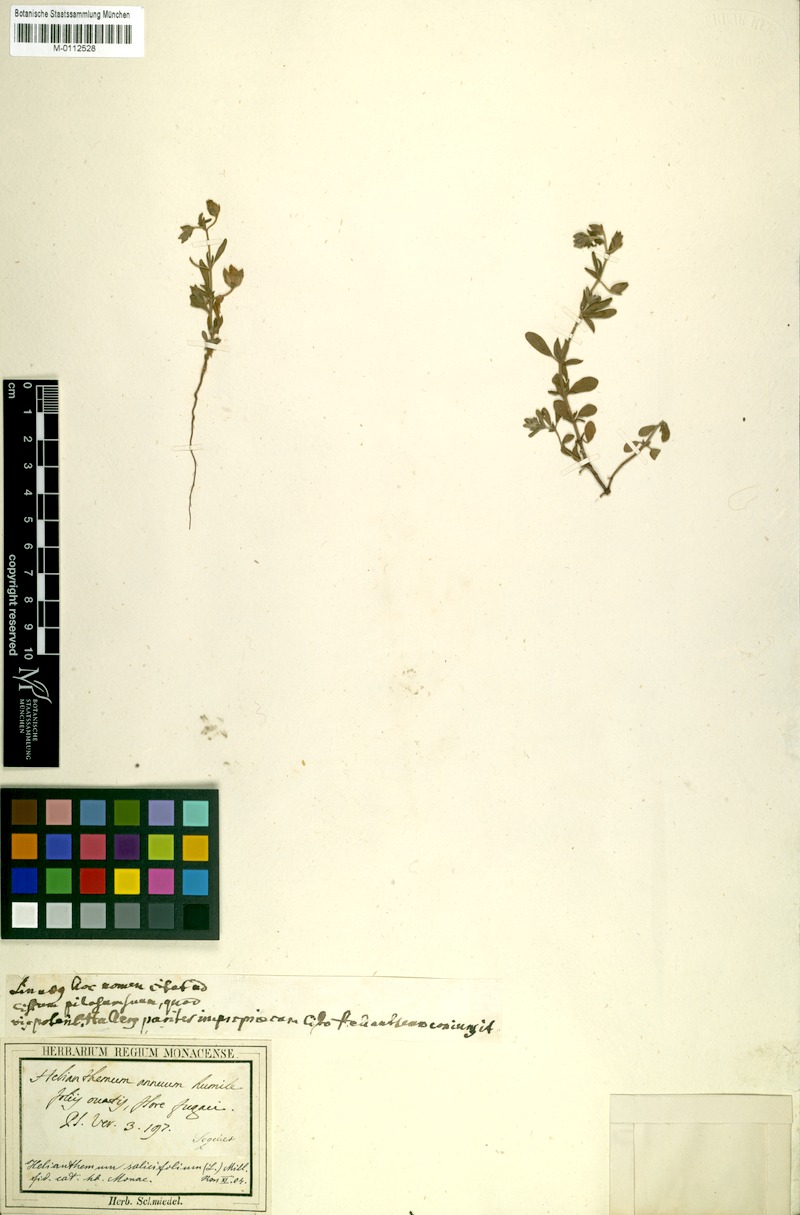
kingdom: Plantae
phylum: Tracheophyta
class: Magnoliopsida
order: Malvales
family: Cistaceae
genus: Helianthemum
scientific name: Helianthemum salicifolium
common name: Willowleaf frostweed
